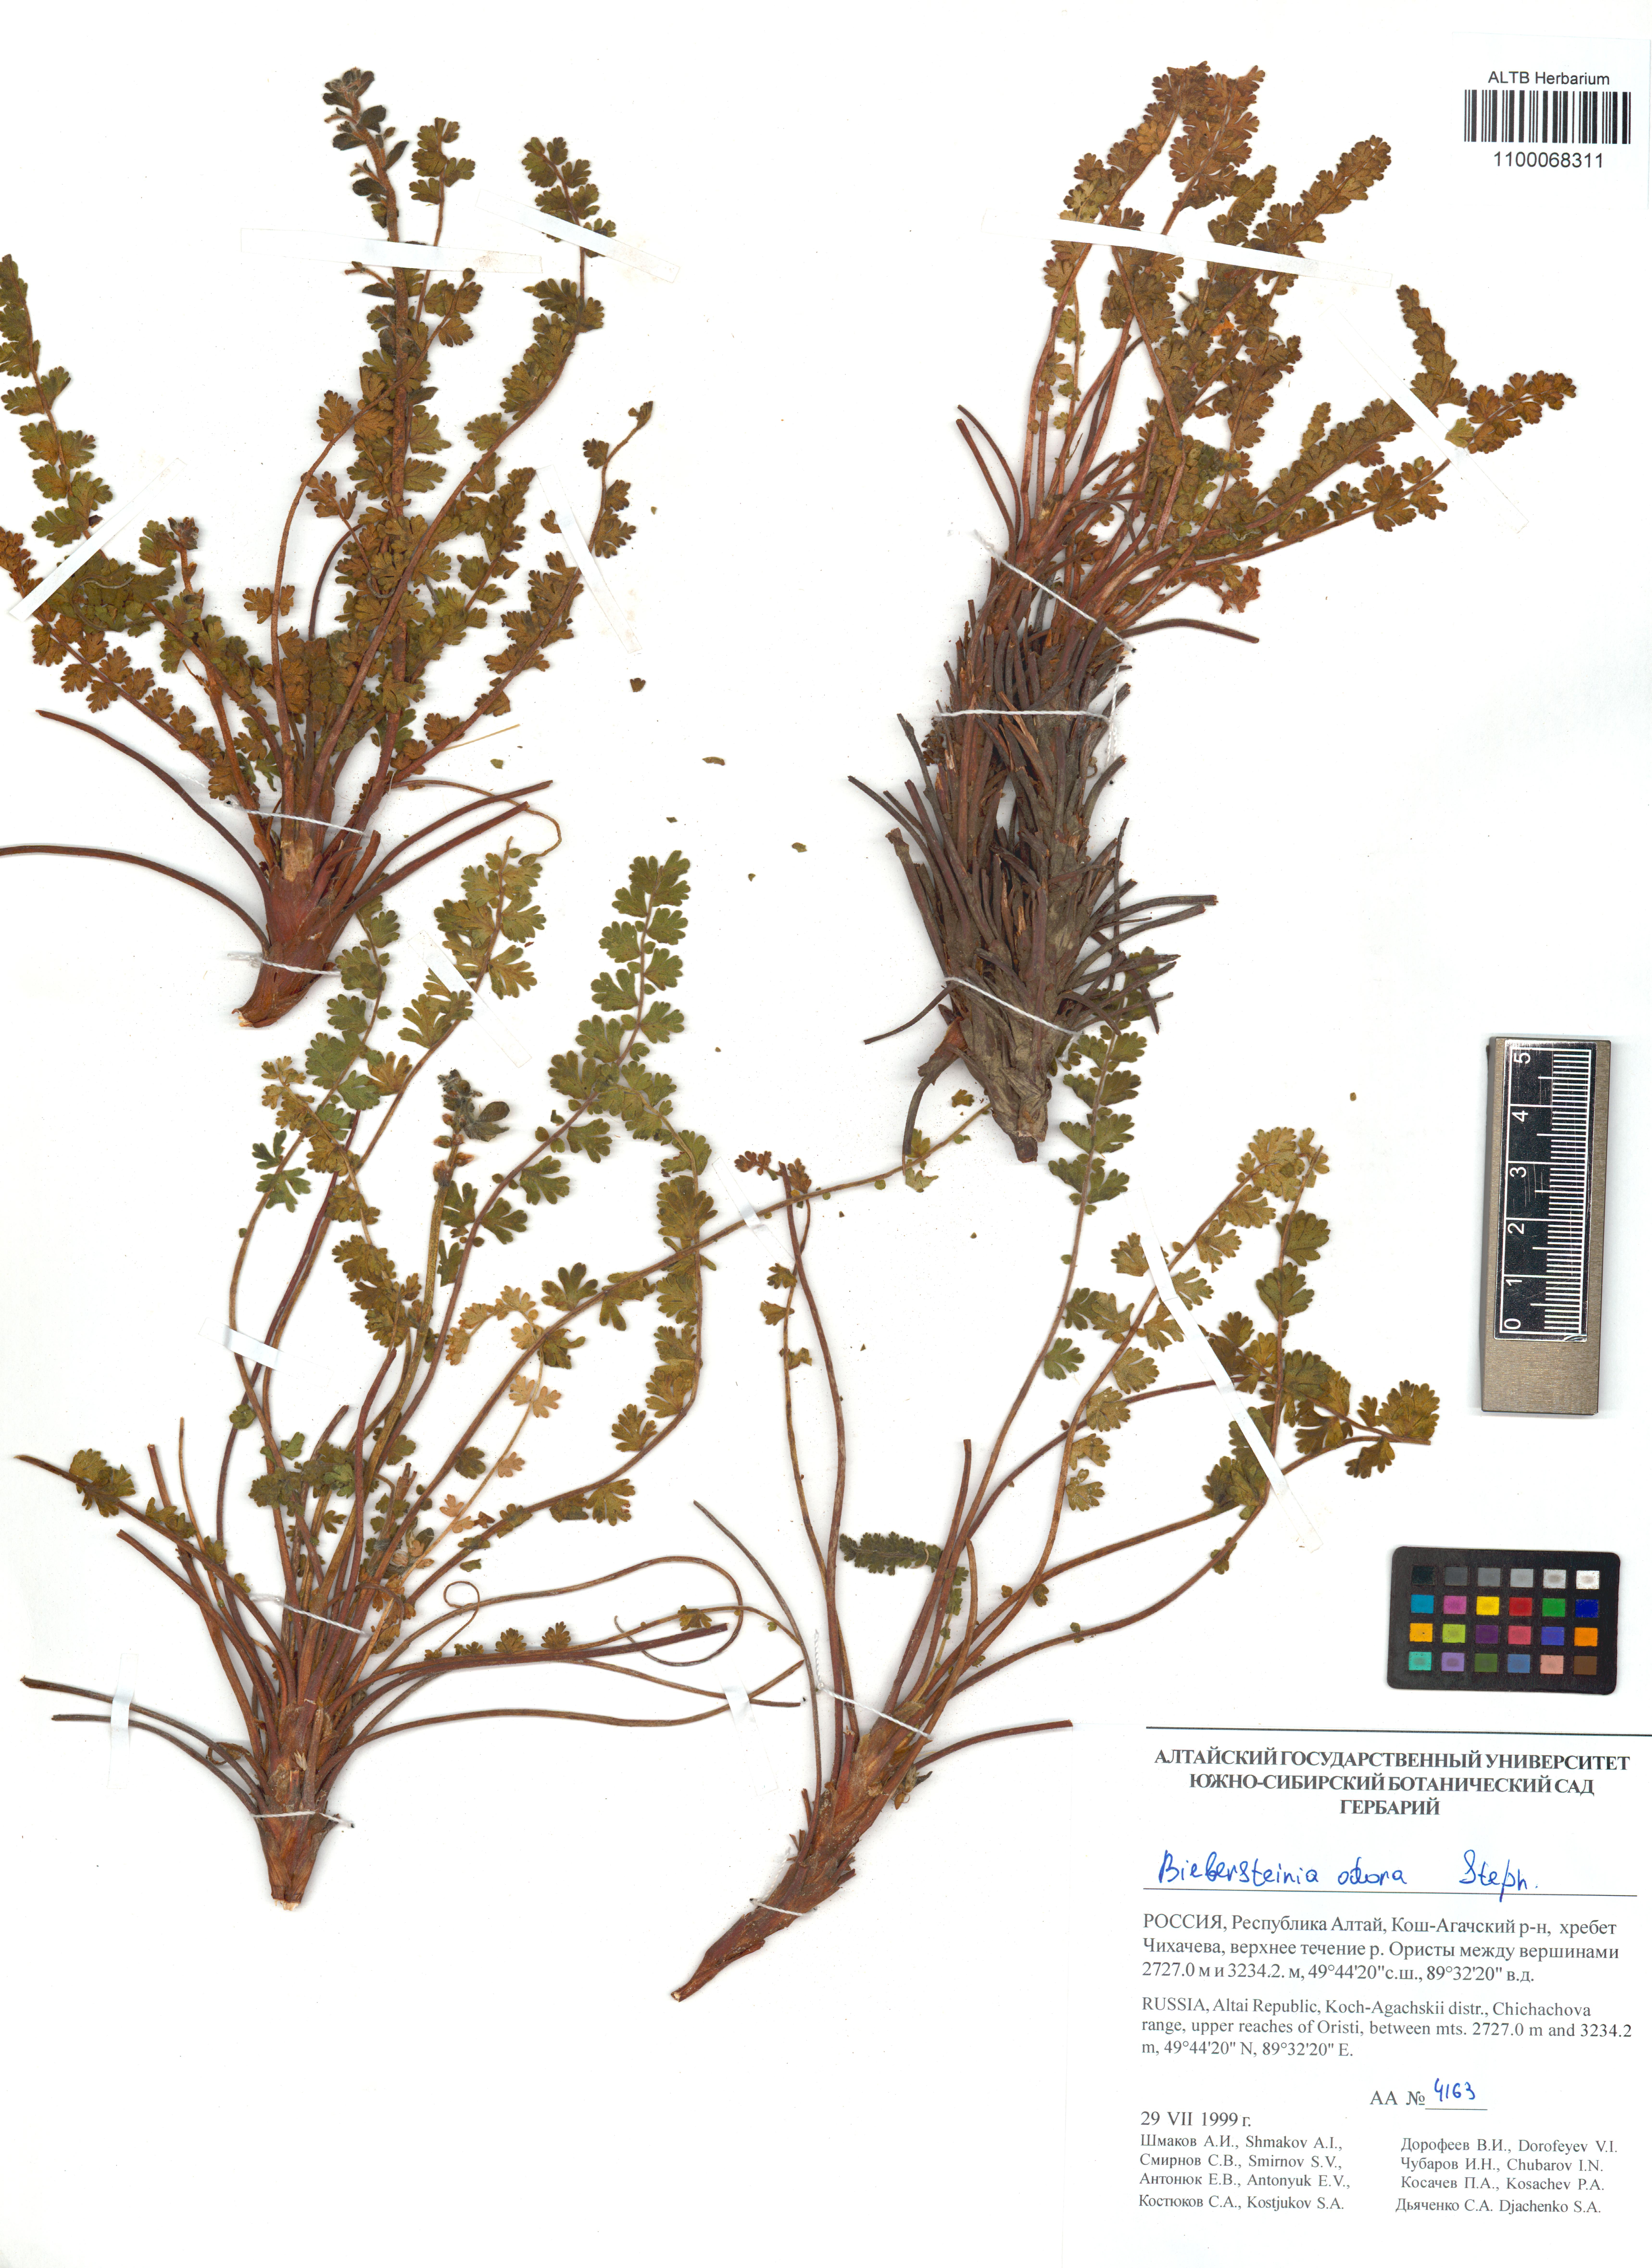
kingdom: Plantae
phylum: Tracheophyta
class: Magnoliopsida
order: Sapindales
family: Biebersteiniaceae
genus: Biebersteinia
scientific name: Biebersteinia odora
